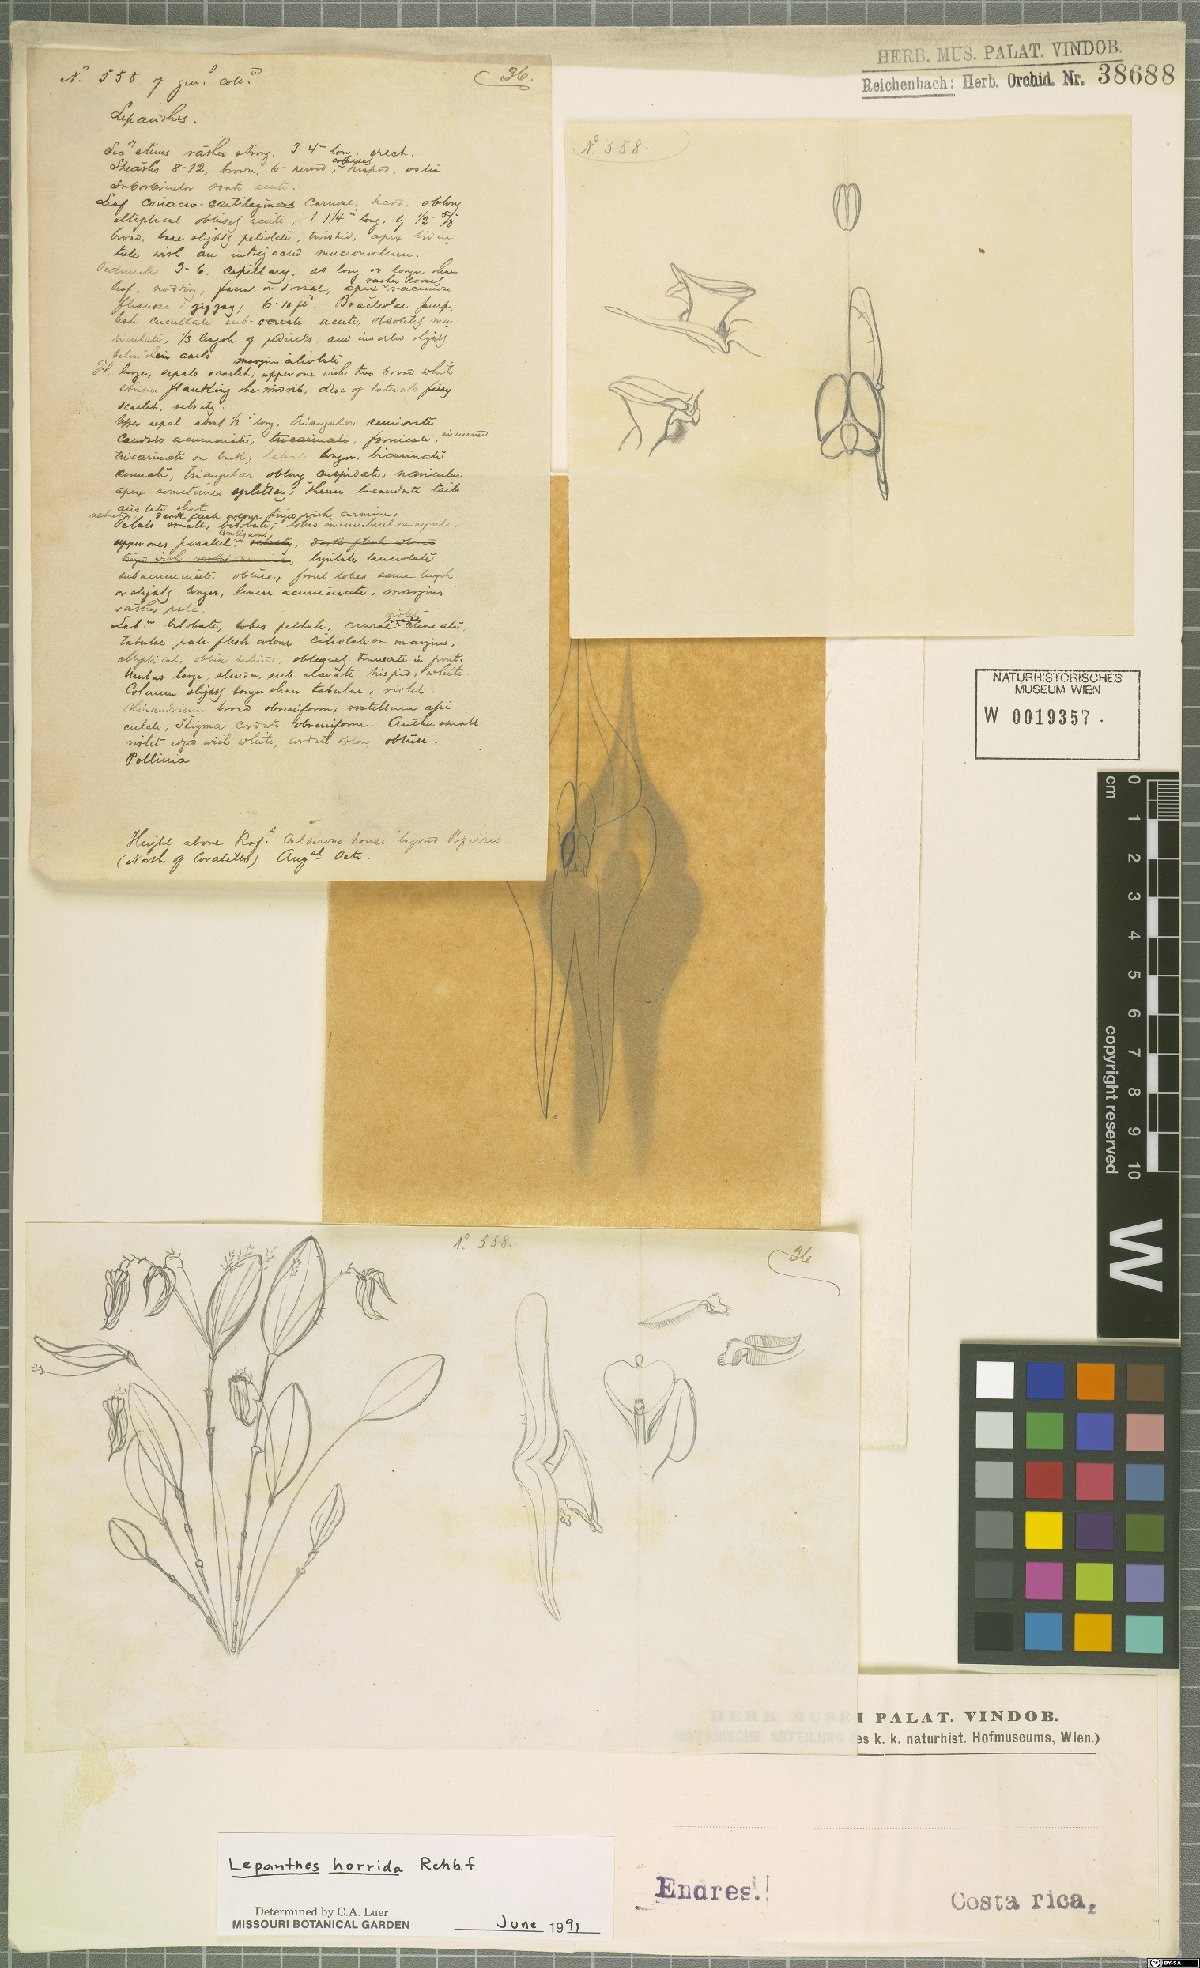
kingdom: Plantae
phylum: Tracheophyta
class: Liliopsida
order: Asparagales
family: Orchidaceae
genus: Lepanthes
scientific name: Lepanthes horrida
